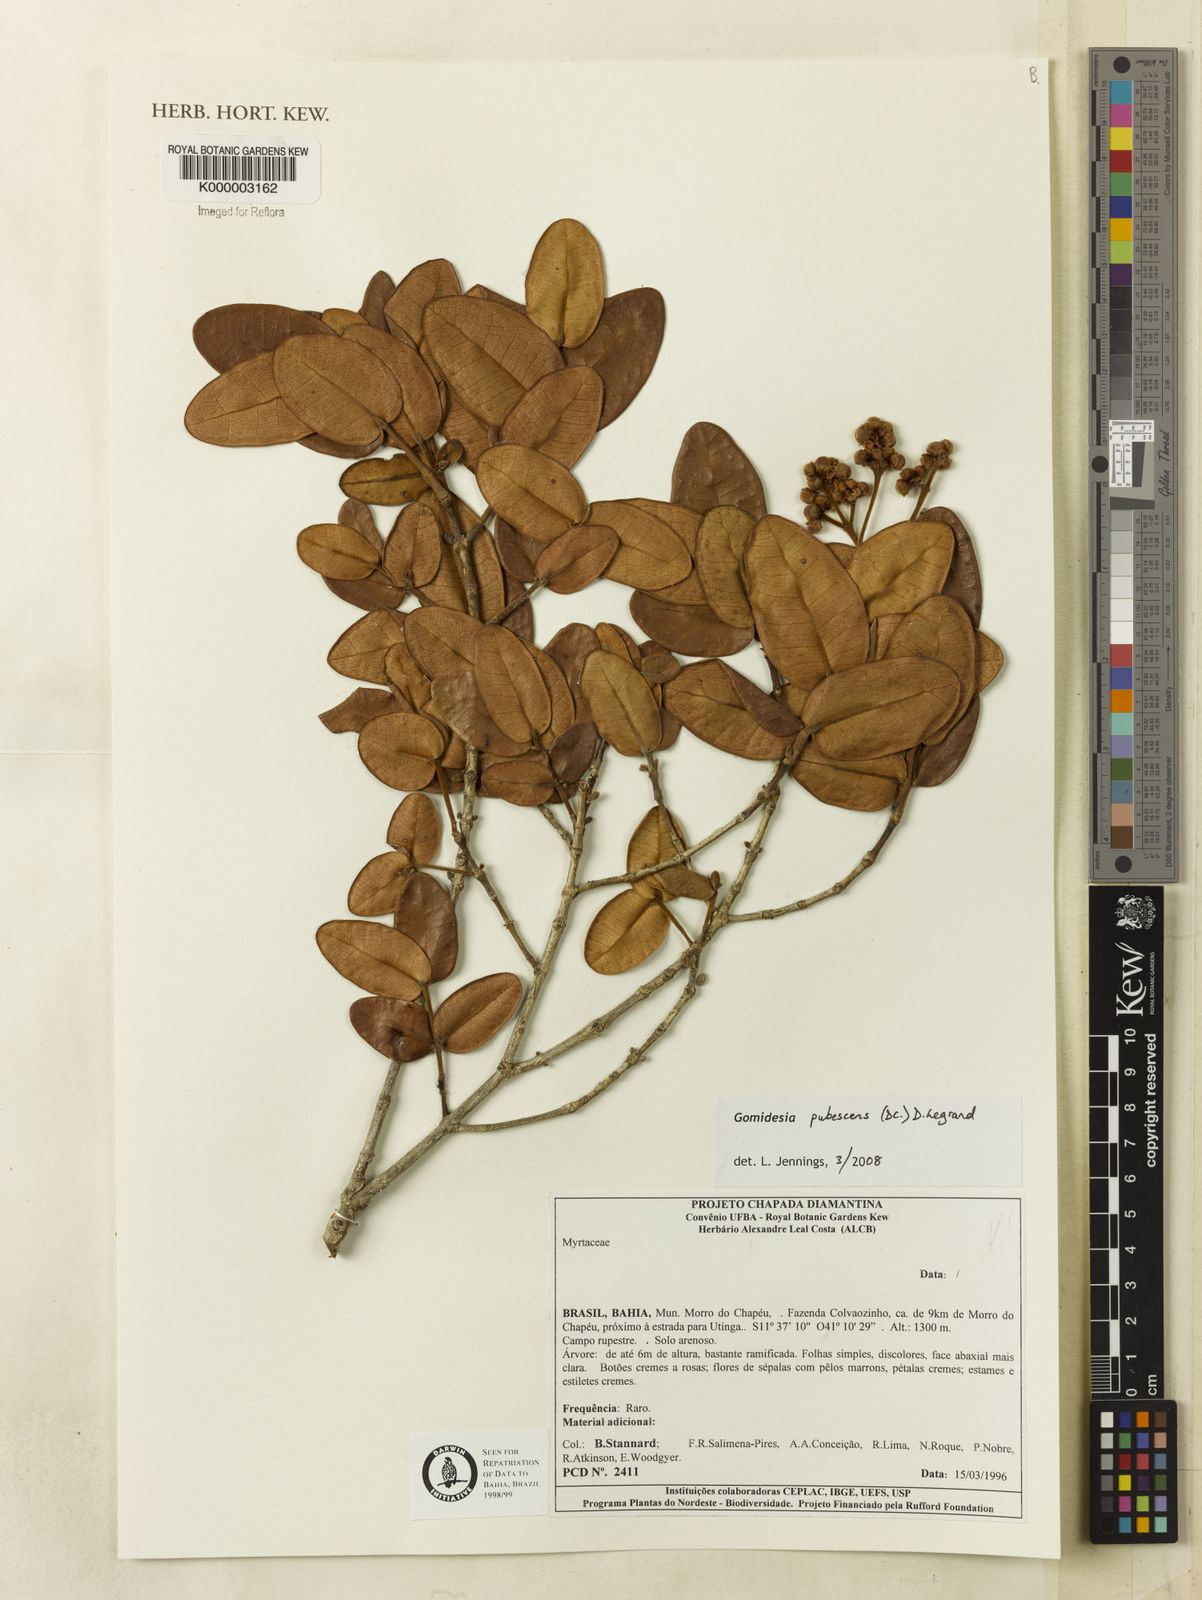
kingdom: Plantae
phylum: Tracheophyta
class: Magnoliopsida
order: Myrtales
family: Myrtaceae
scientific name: Myrtaceae
